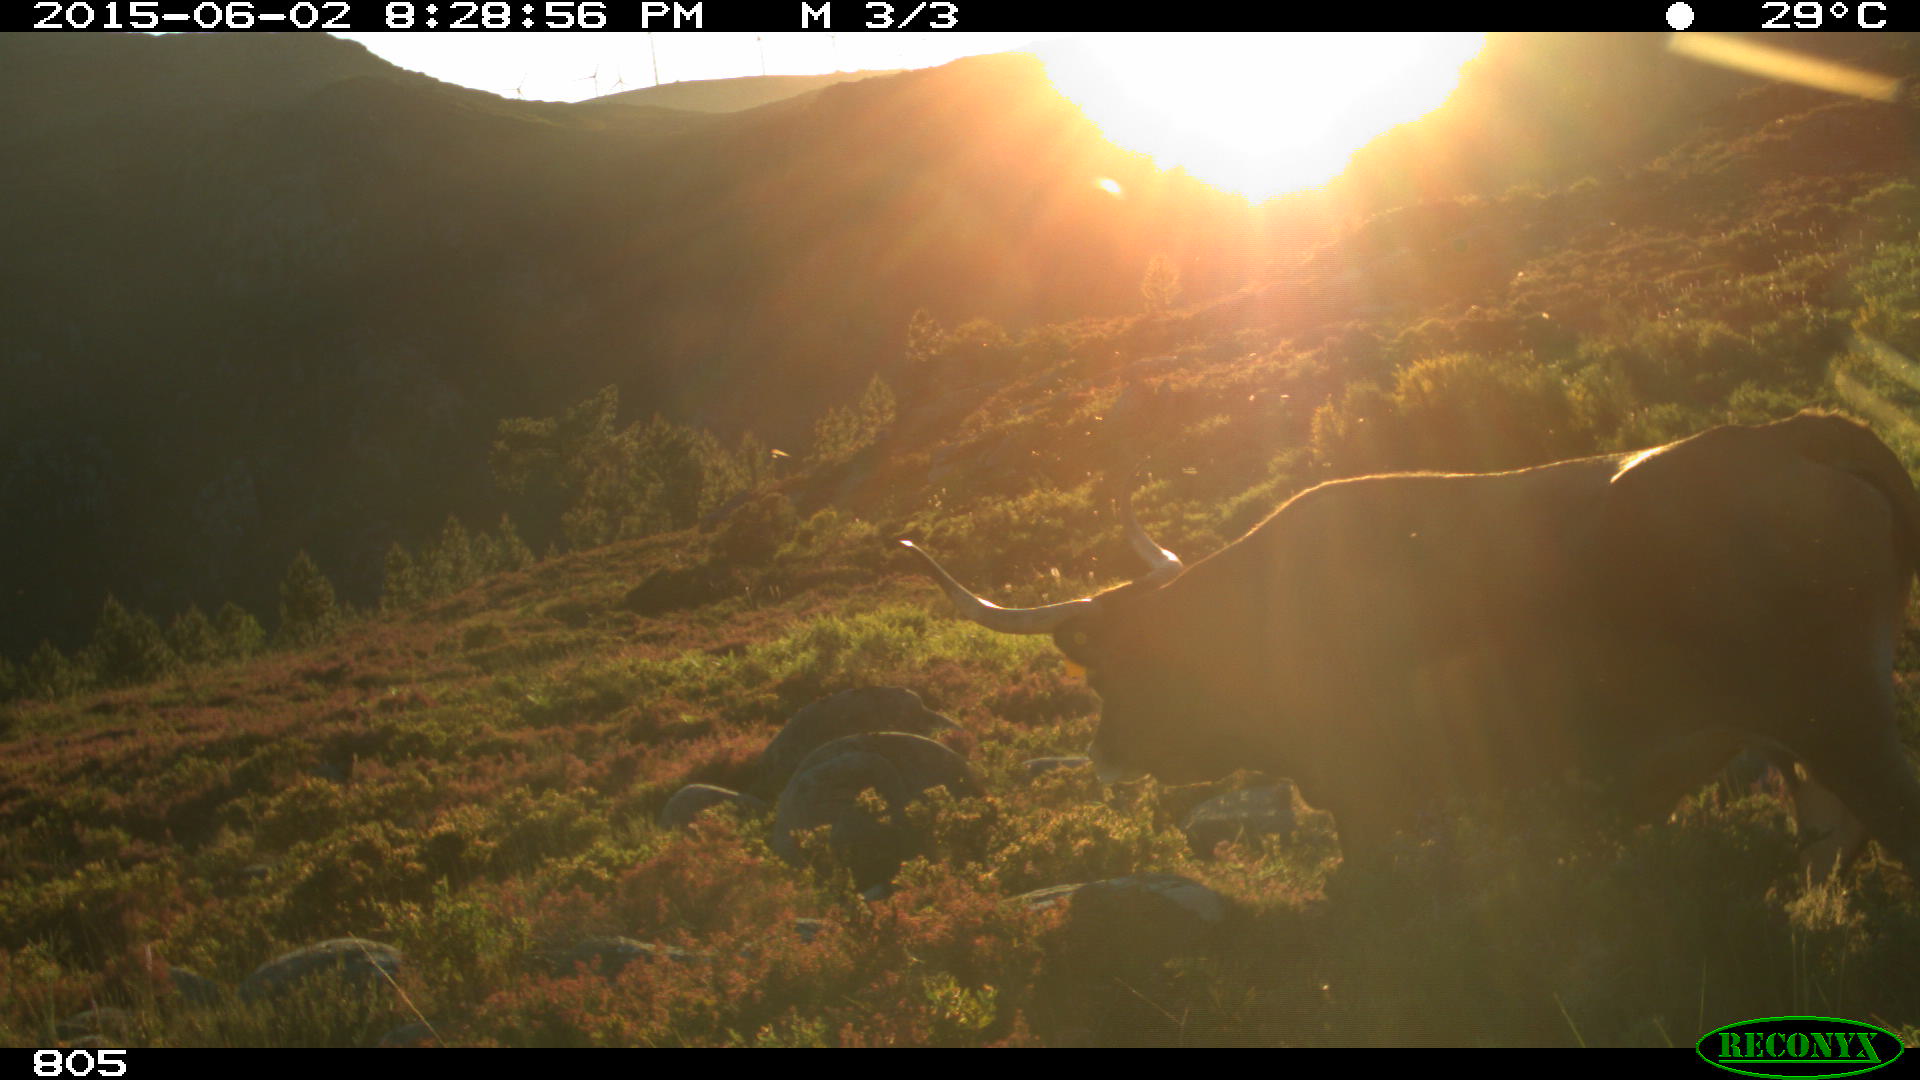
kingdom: Animalia
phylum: Chordata
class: Mammalia
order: Artiodactyla
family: Bovidae
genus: Bos
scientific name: Bos taurus
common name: Domesticated cattle
